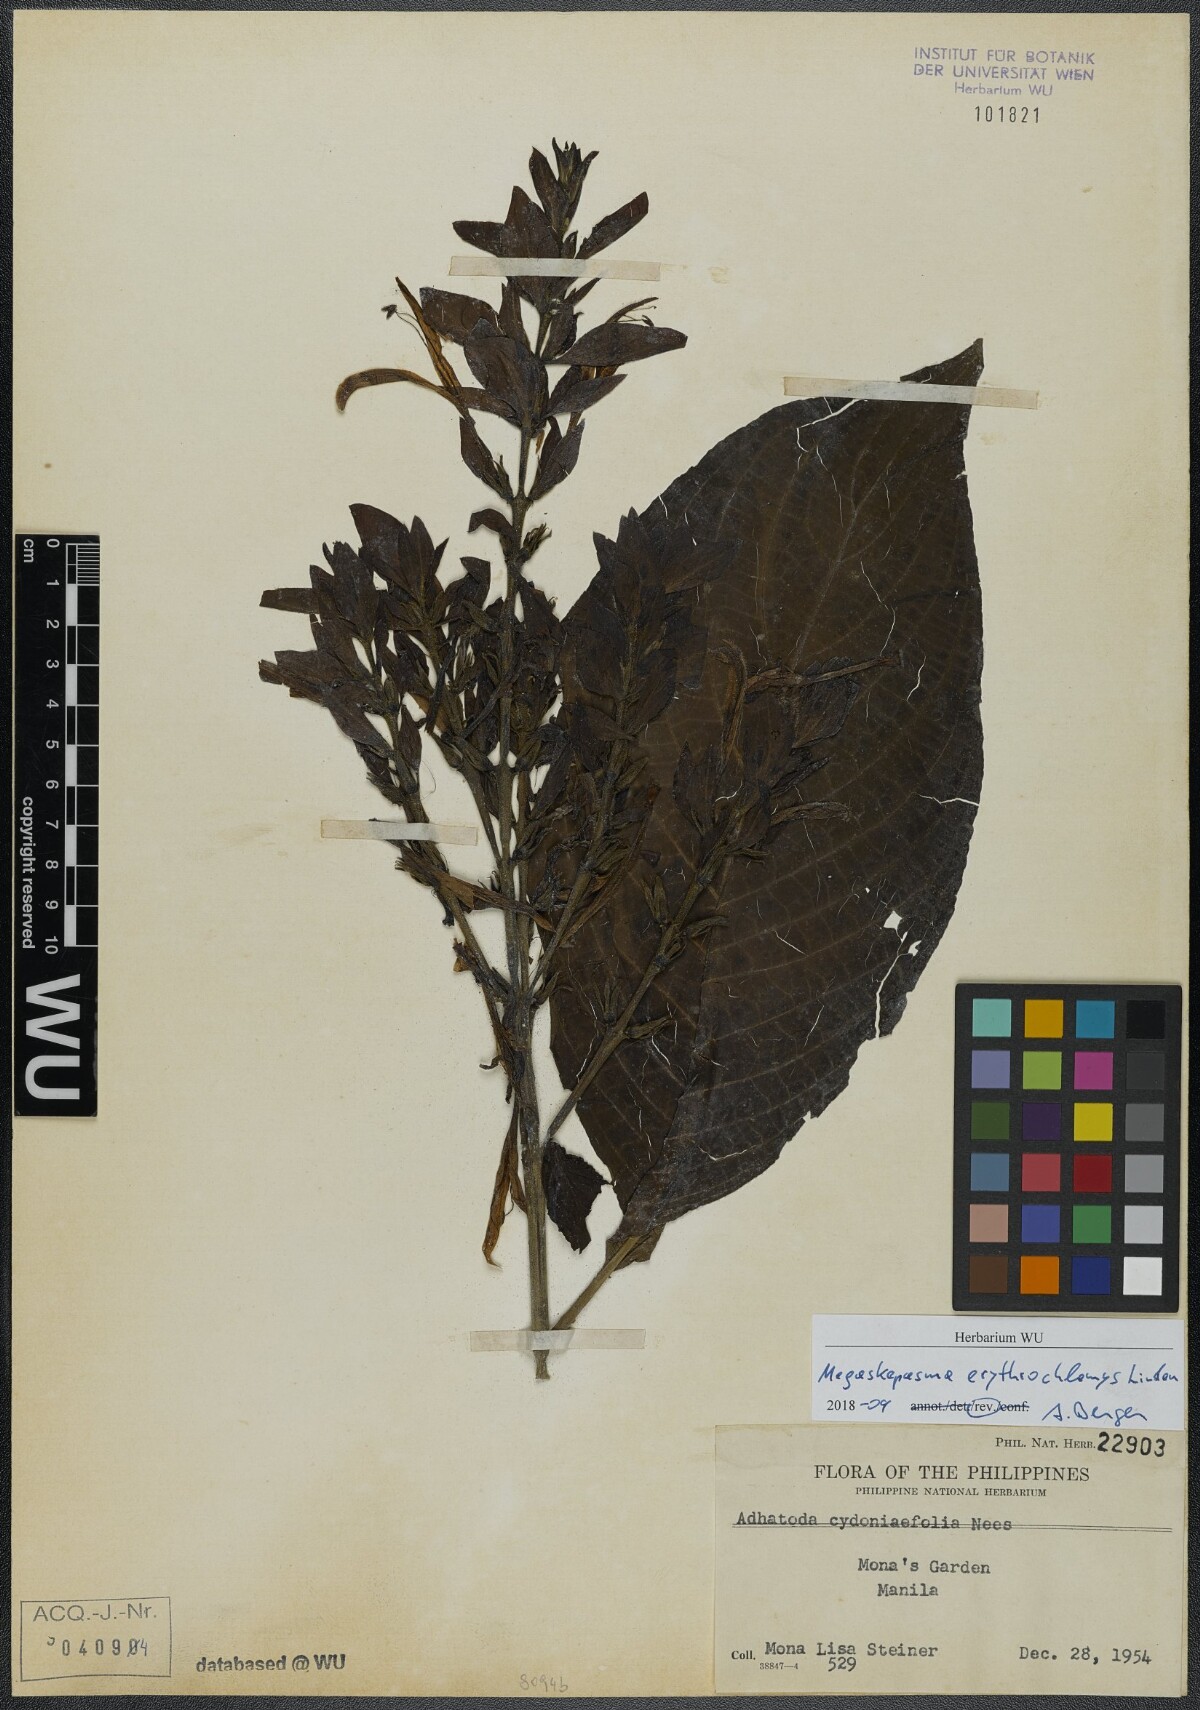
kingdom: Plantae
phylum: Tracheophyta
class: Magnoliopsida
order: Lamiales
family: Acanthaceae
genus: Megaskepasma
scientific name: Megaskepasma erythrochlamys
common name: Brazilian red-cloak
